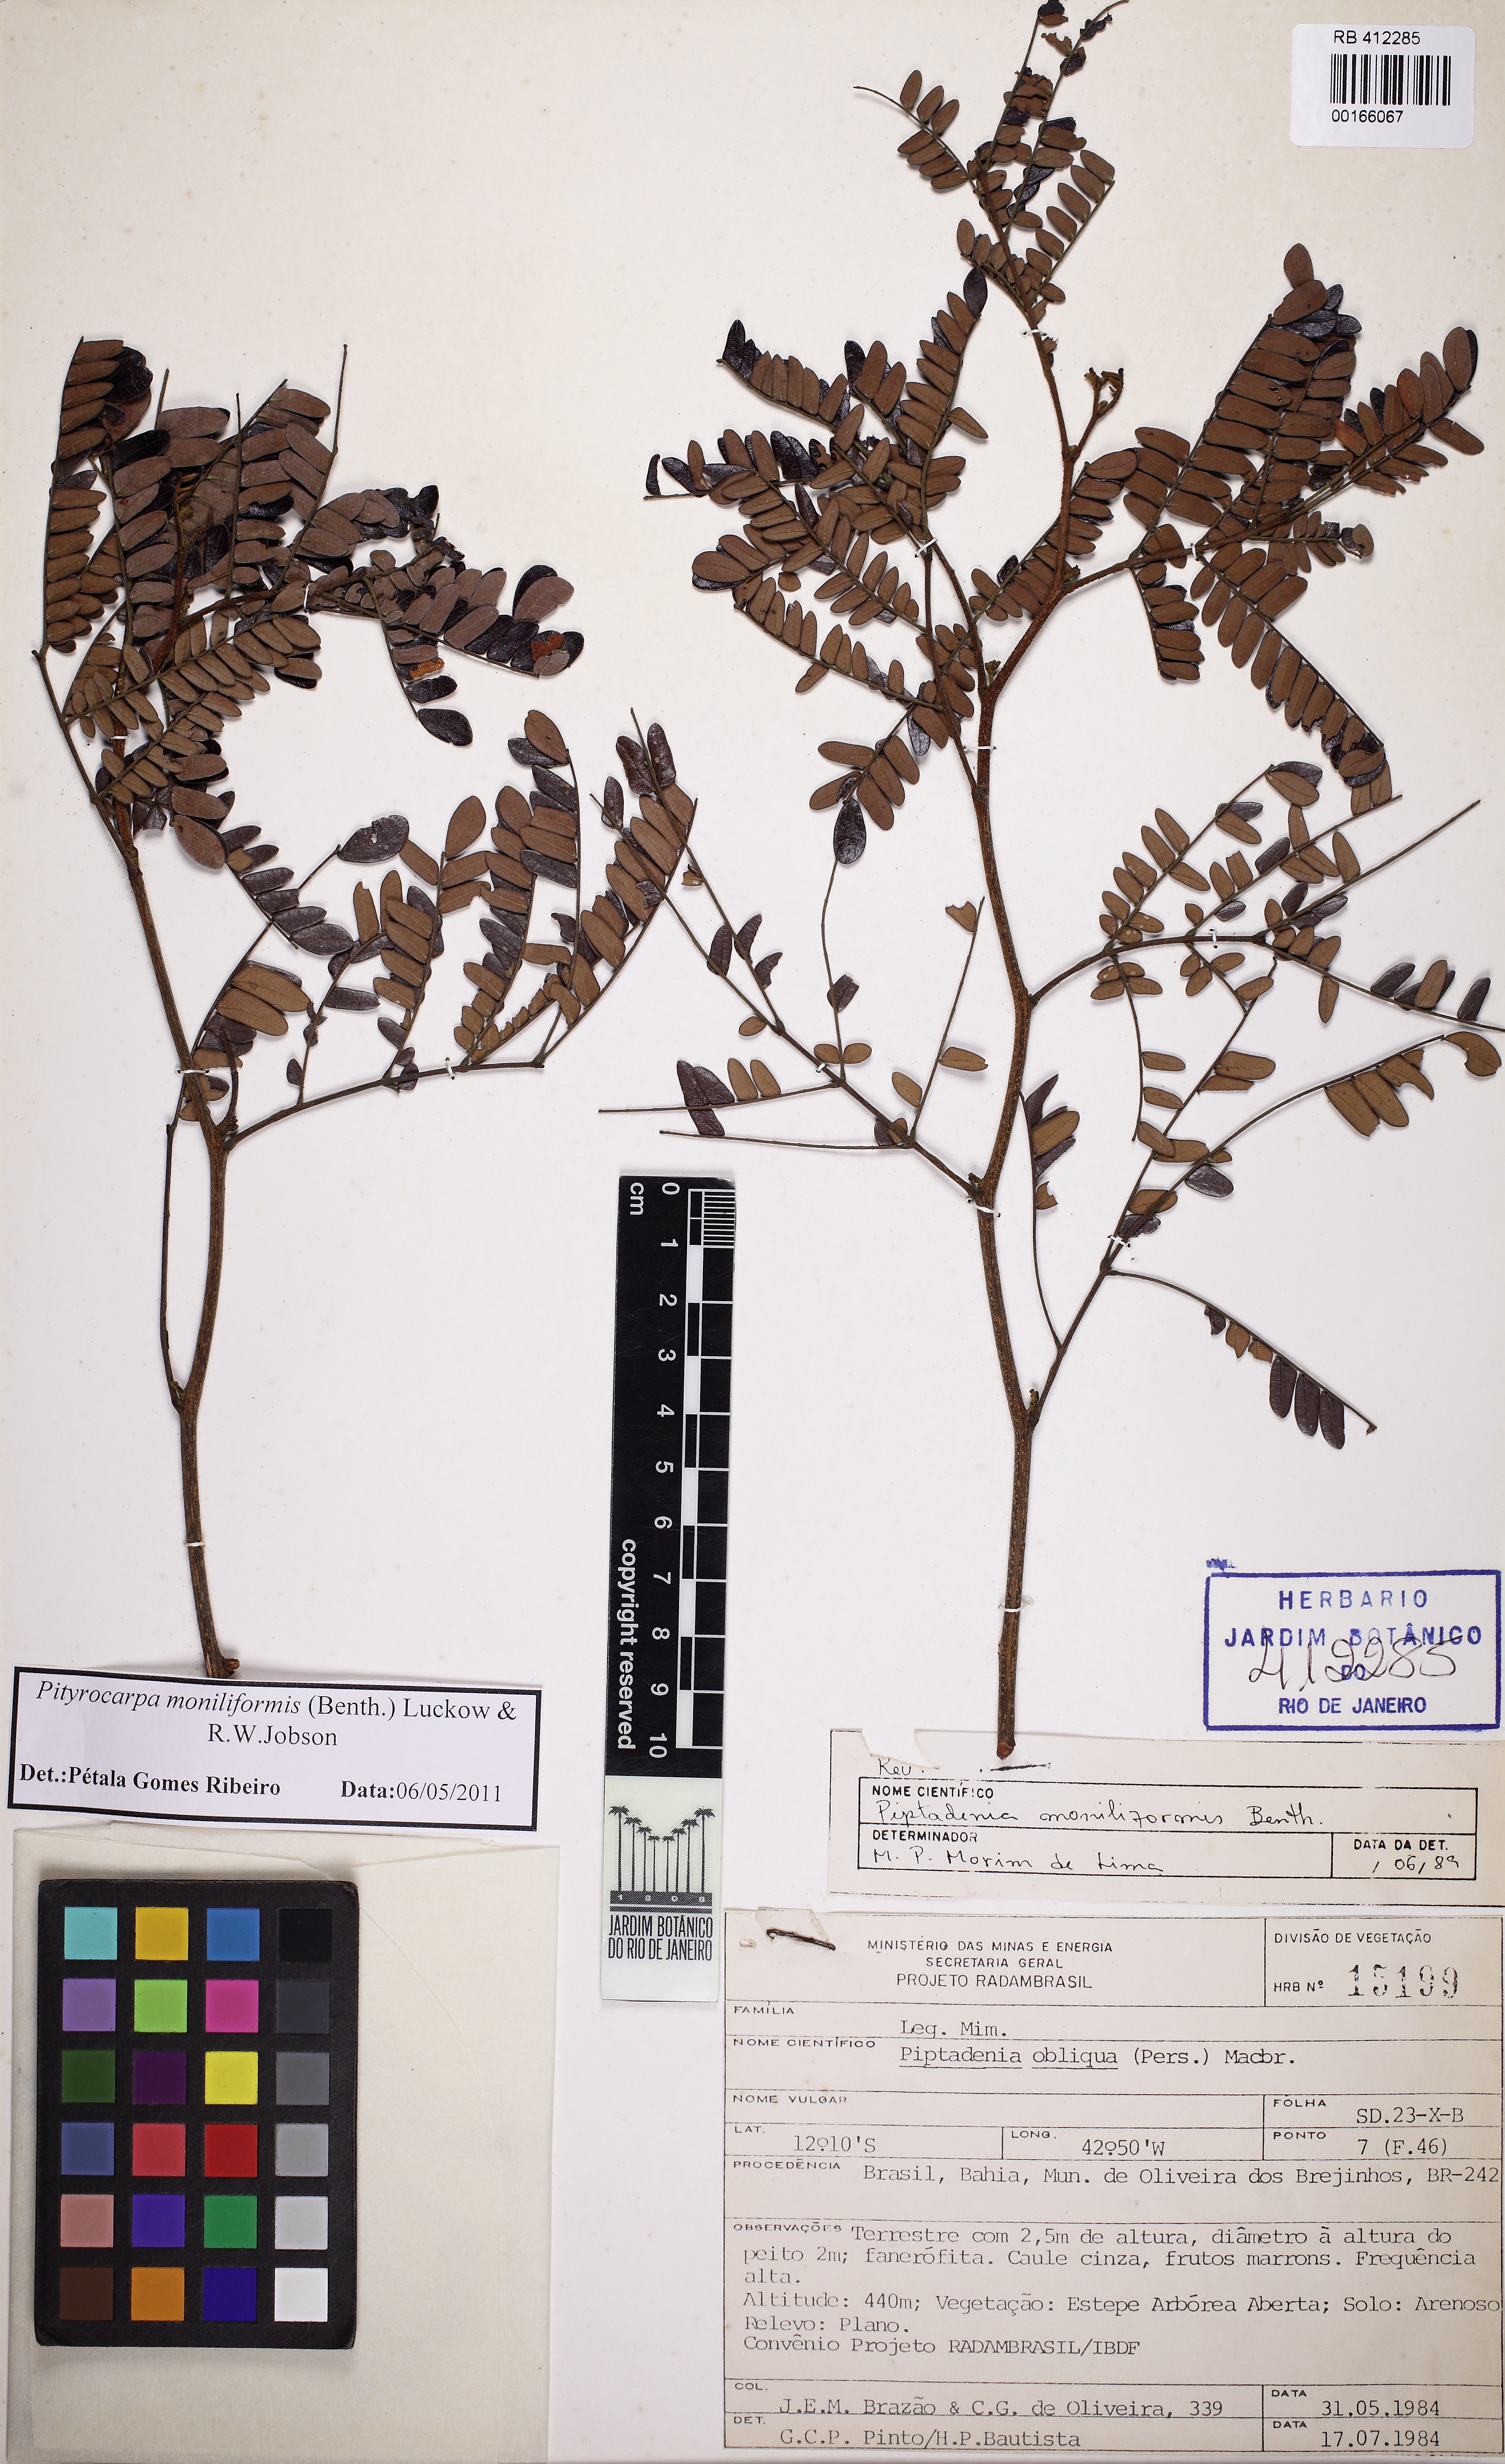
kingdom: Plantae
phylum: Tracheophyta
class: Magnoliopsida
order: Fabales
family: Fabaceae
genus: Pityrocarpa
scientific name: Pityrocarpa moniliformis
